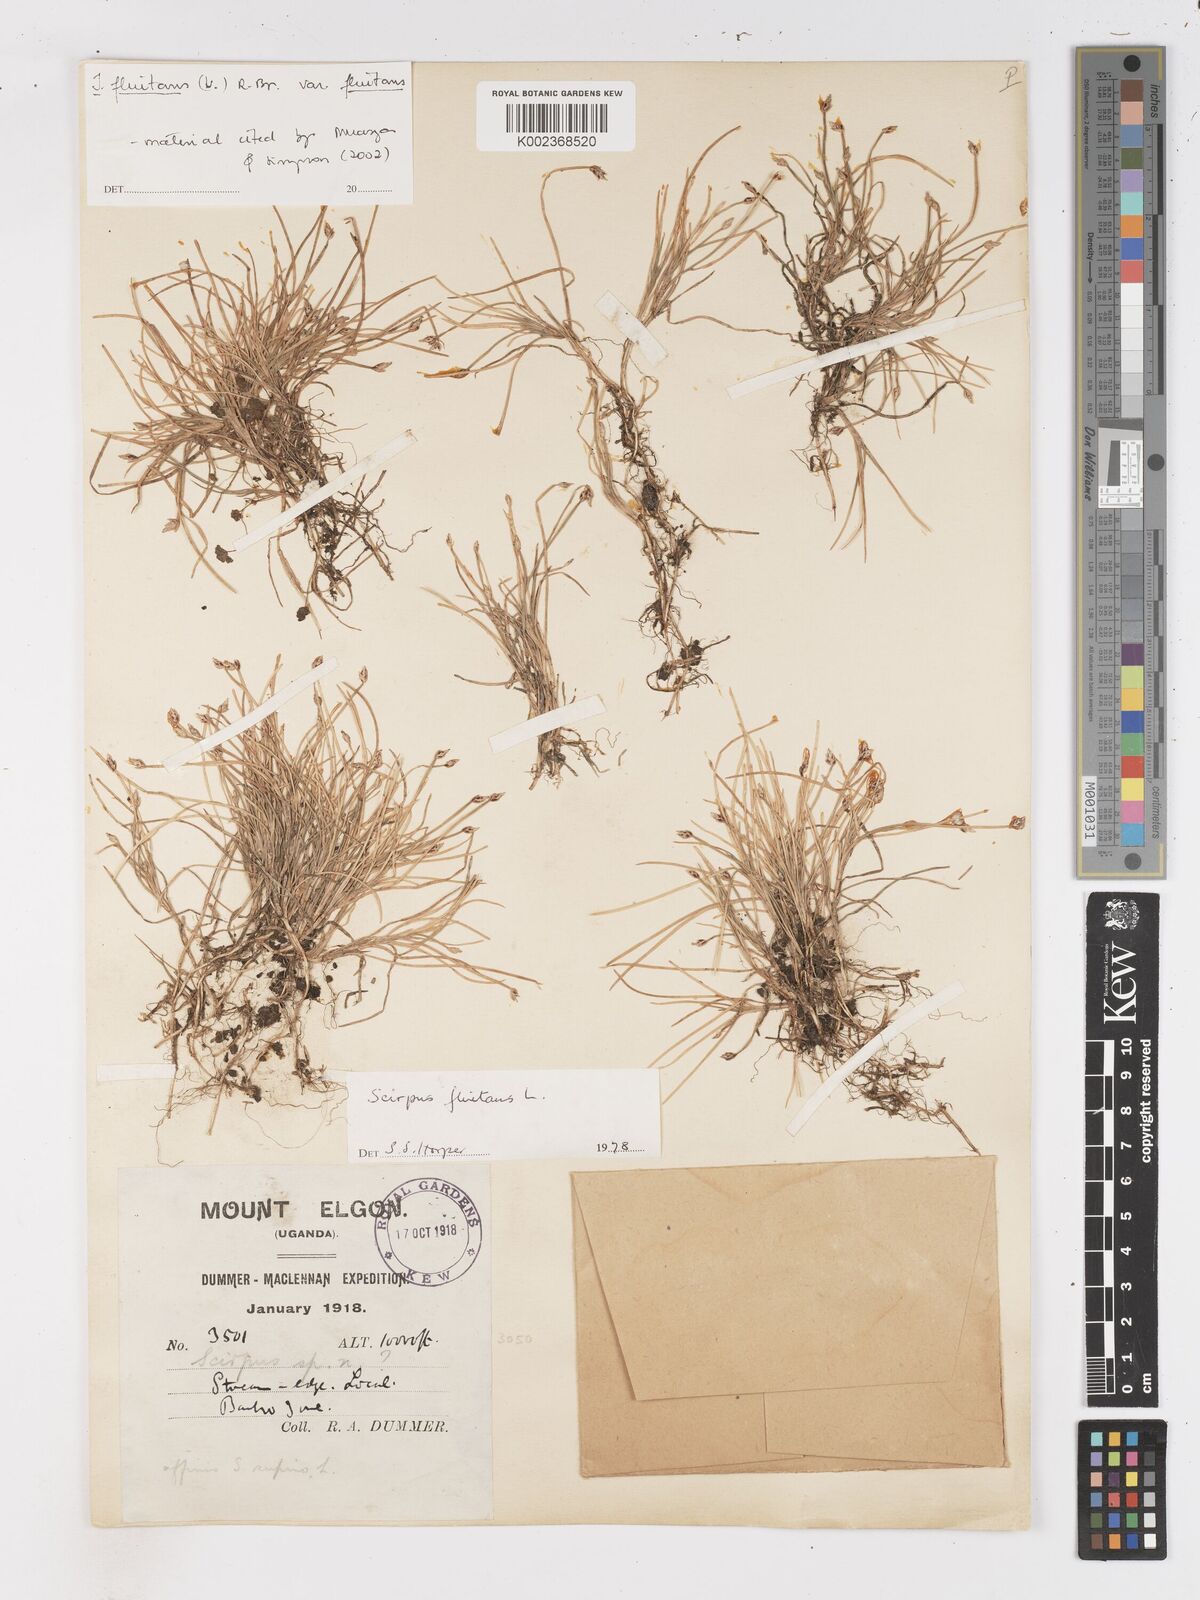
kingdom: Plantae
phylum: Tracheophyta
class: Liliopsida
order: Poales
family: Cyperaceae
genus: Isolepis
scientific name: Isolepis fluitans
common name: Floating club-rush
